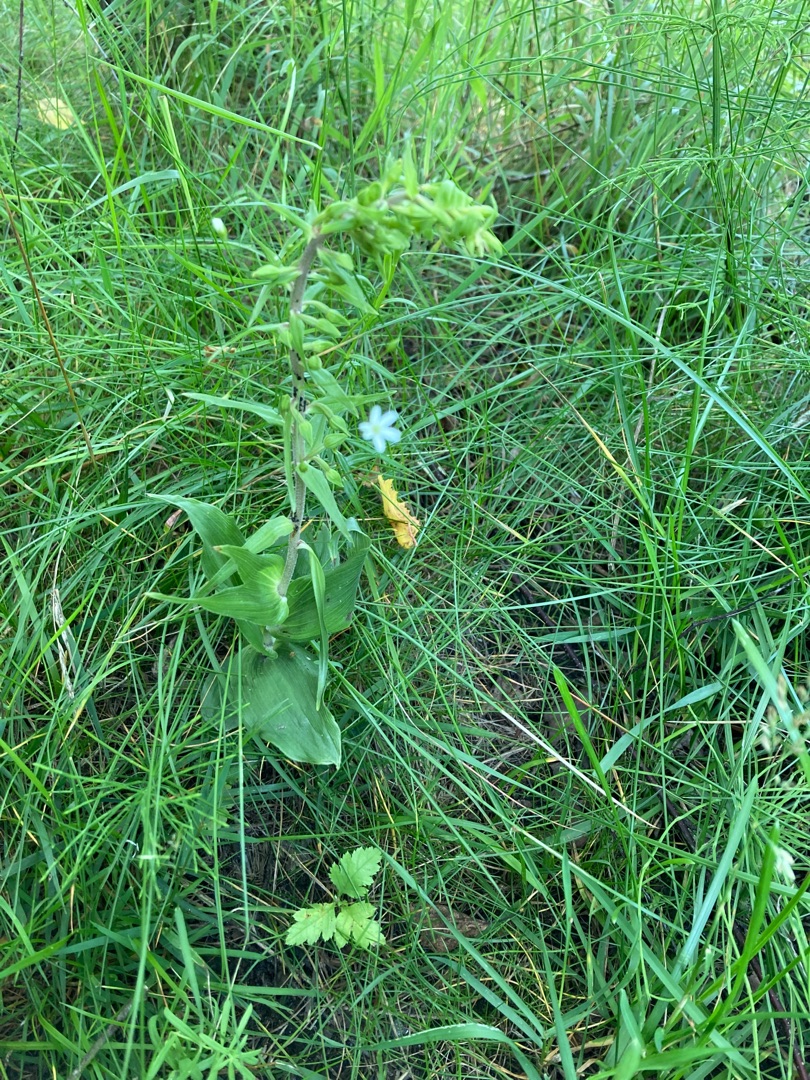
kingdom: Plantae
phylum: Tracheophyta
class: Liliopsida
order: Asparagales
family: Orchidaceae
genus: Epipactis
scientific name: Epipactis helleborine
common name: Skov-hullæbe
